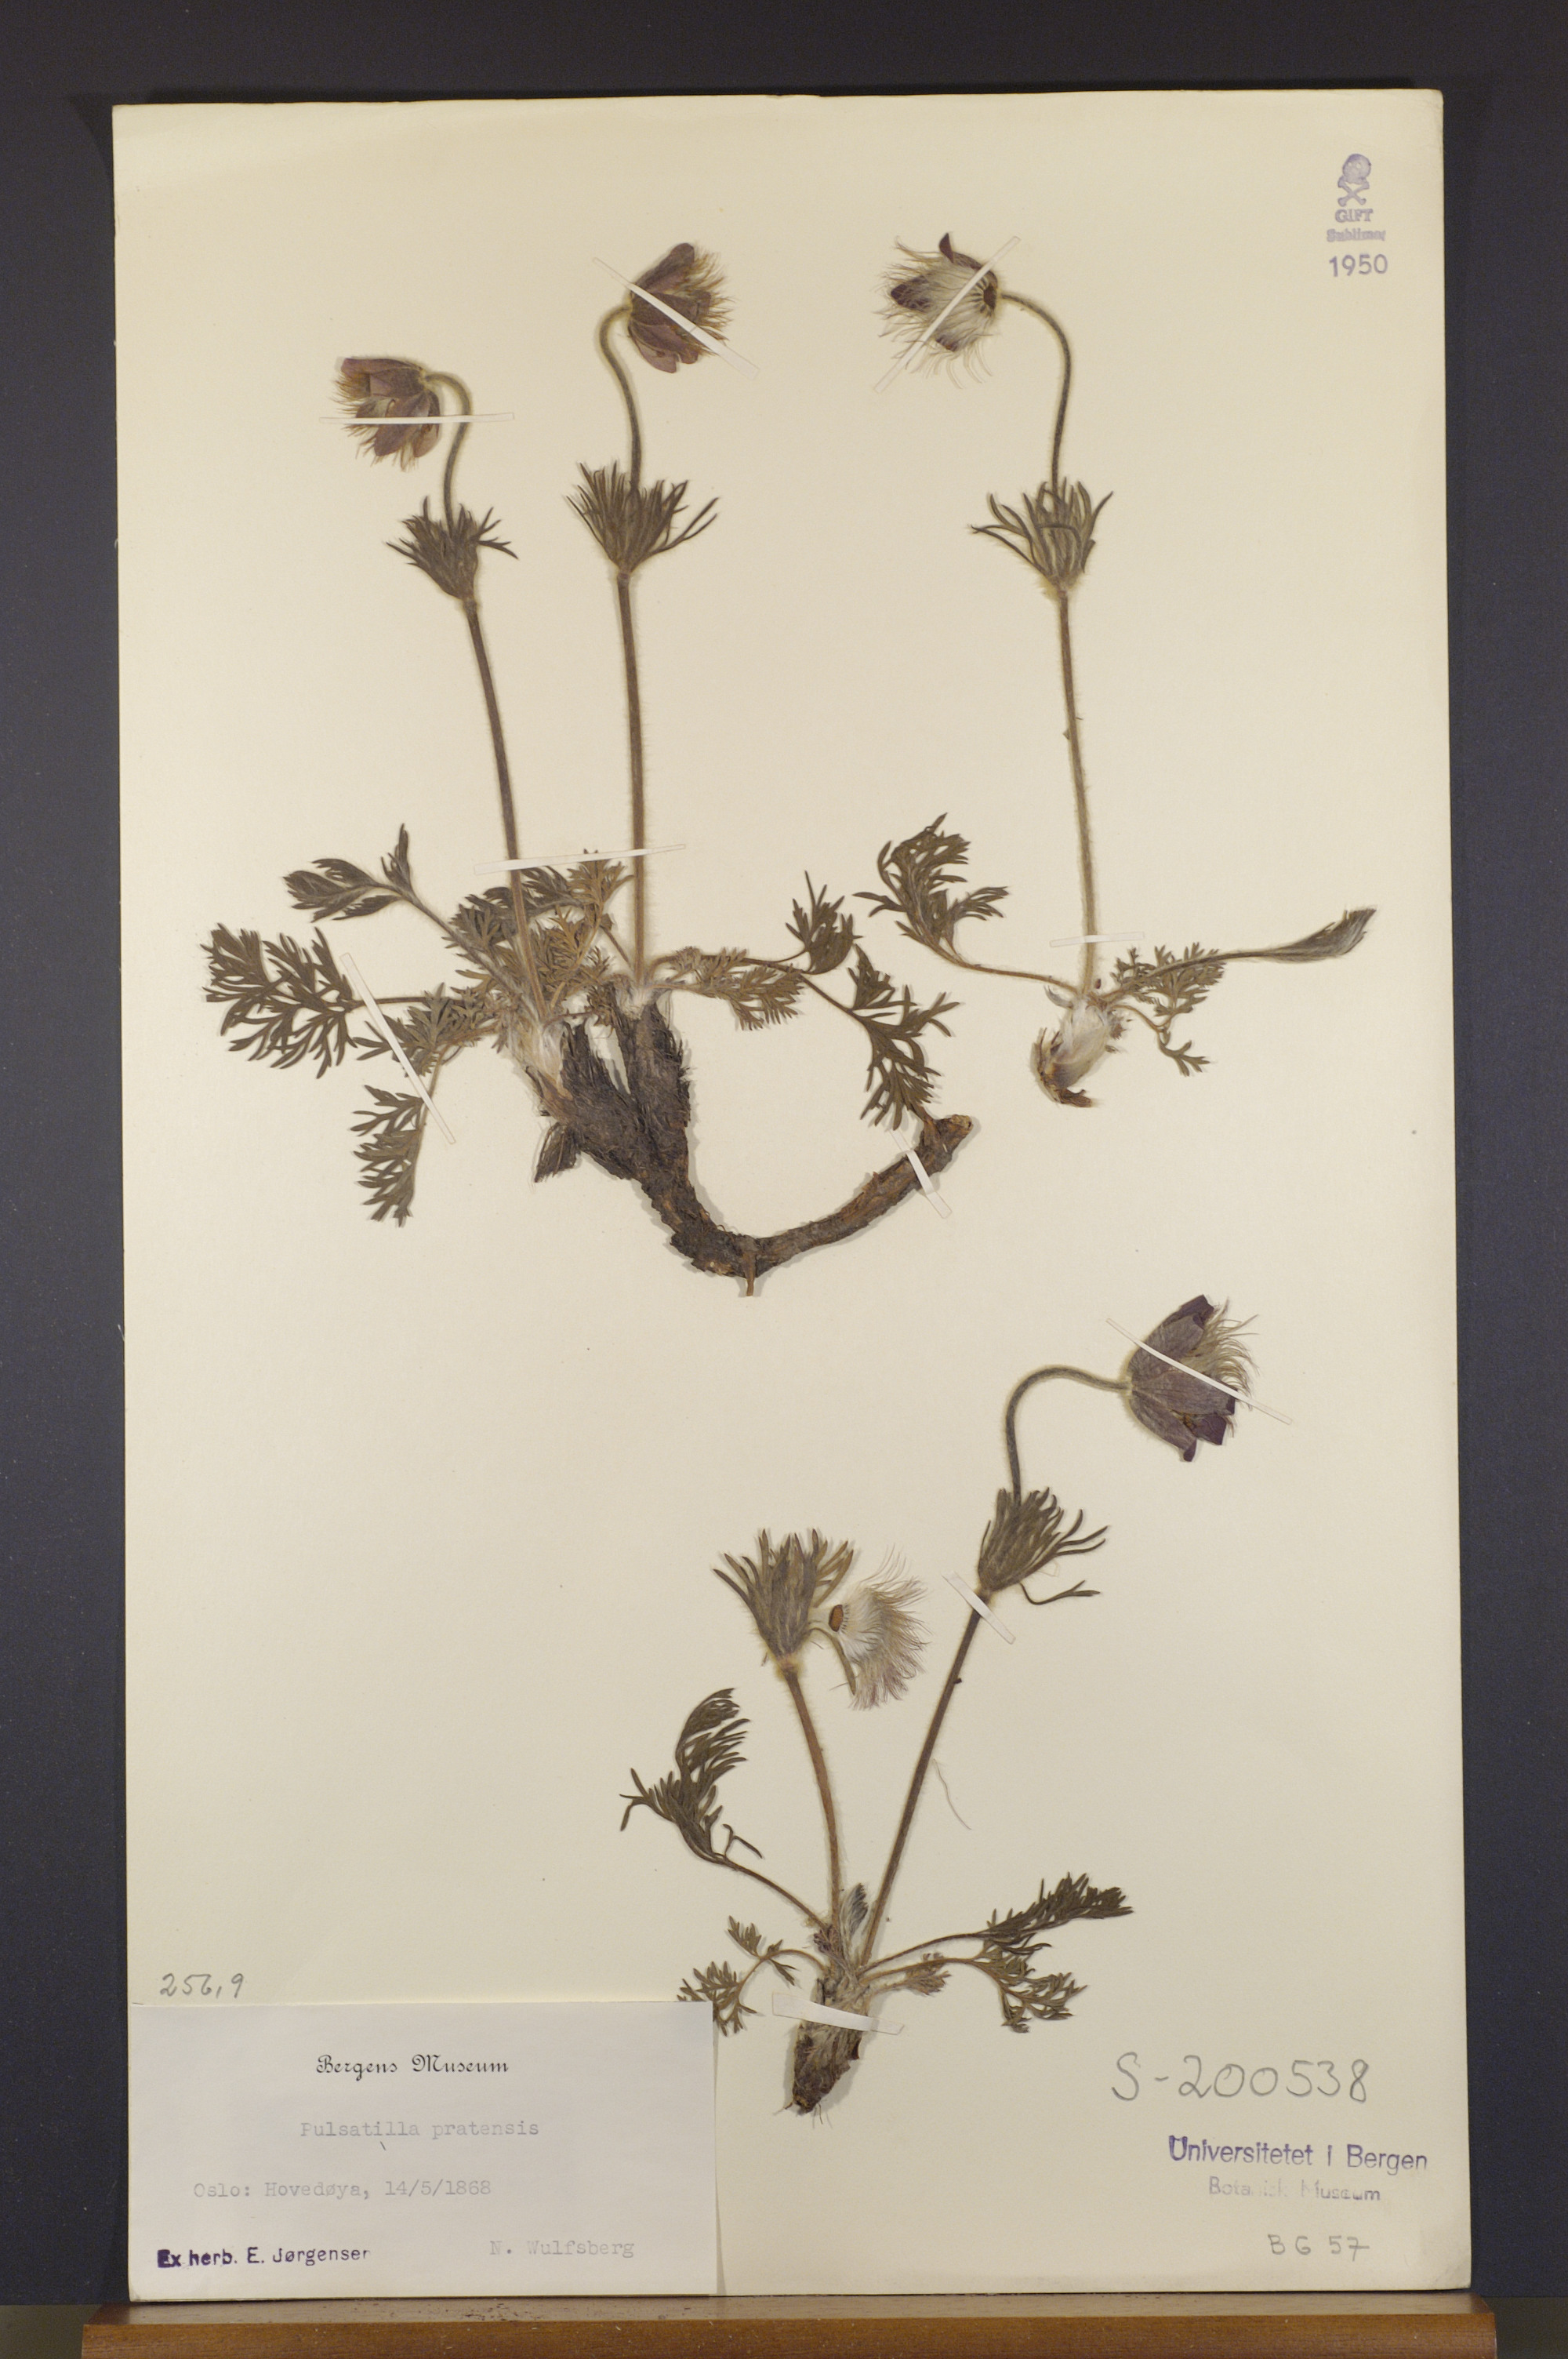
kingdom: Plantae
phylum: Tracheophyta
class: Magnoliopsida
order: Ranunculales
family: Ranunculaceae
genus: Pulsatilla
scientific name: Pulsatilla pratensis
